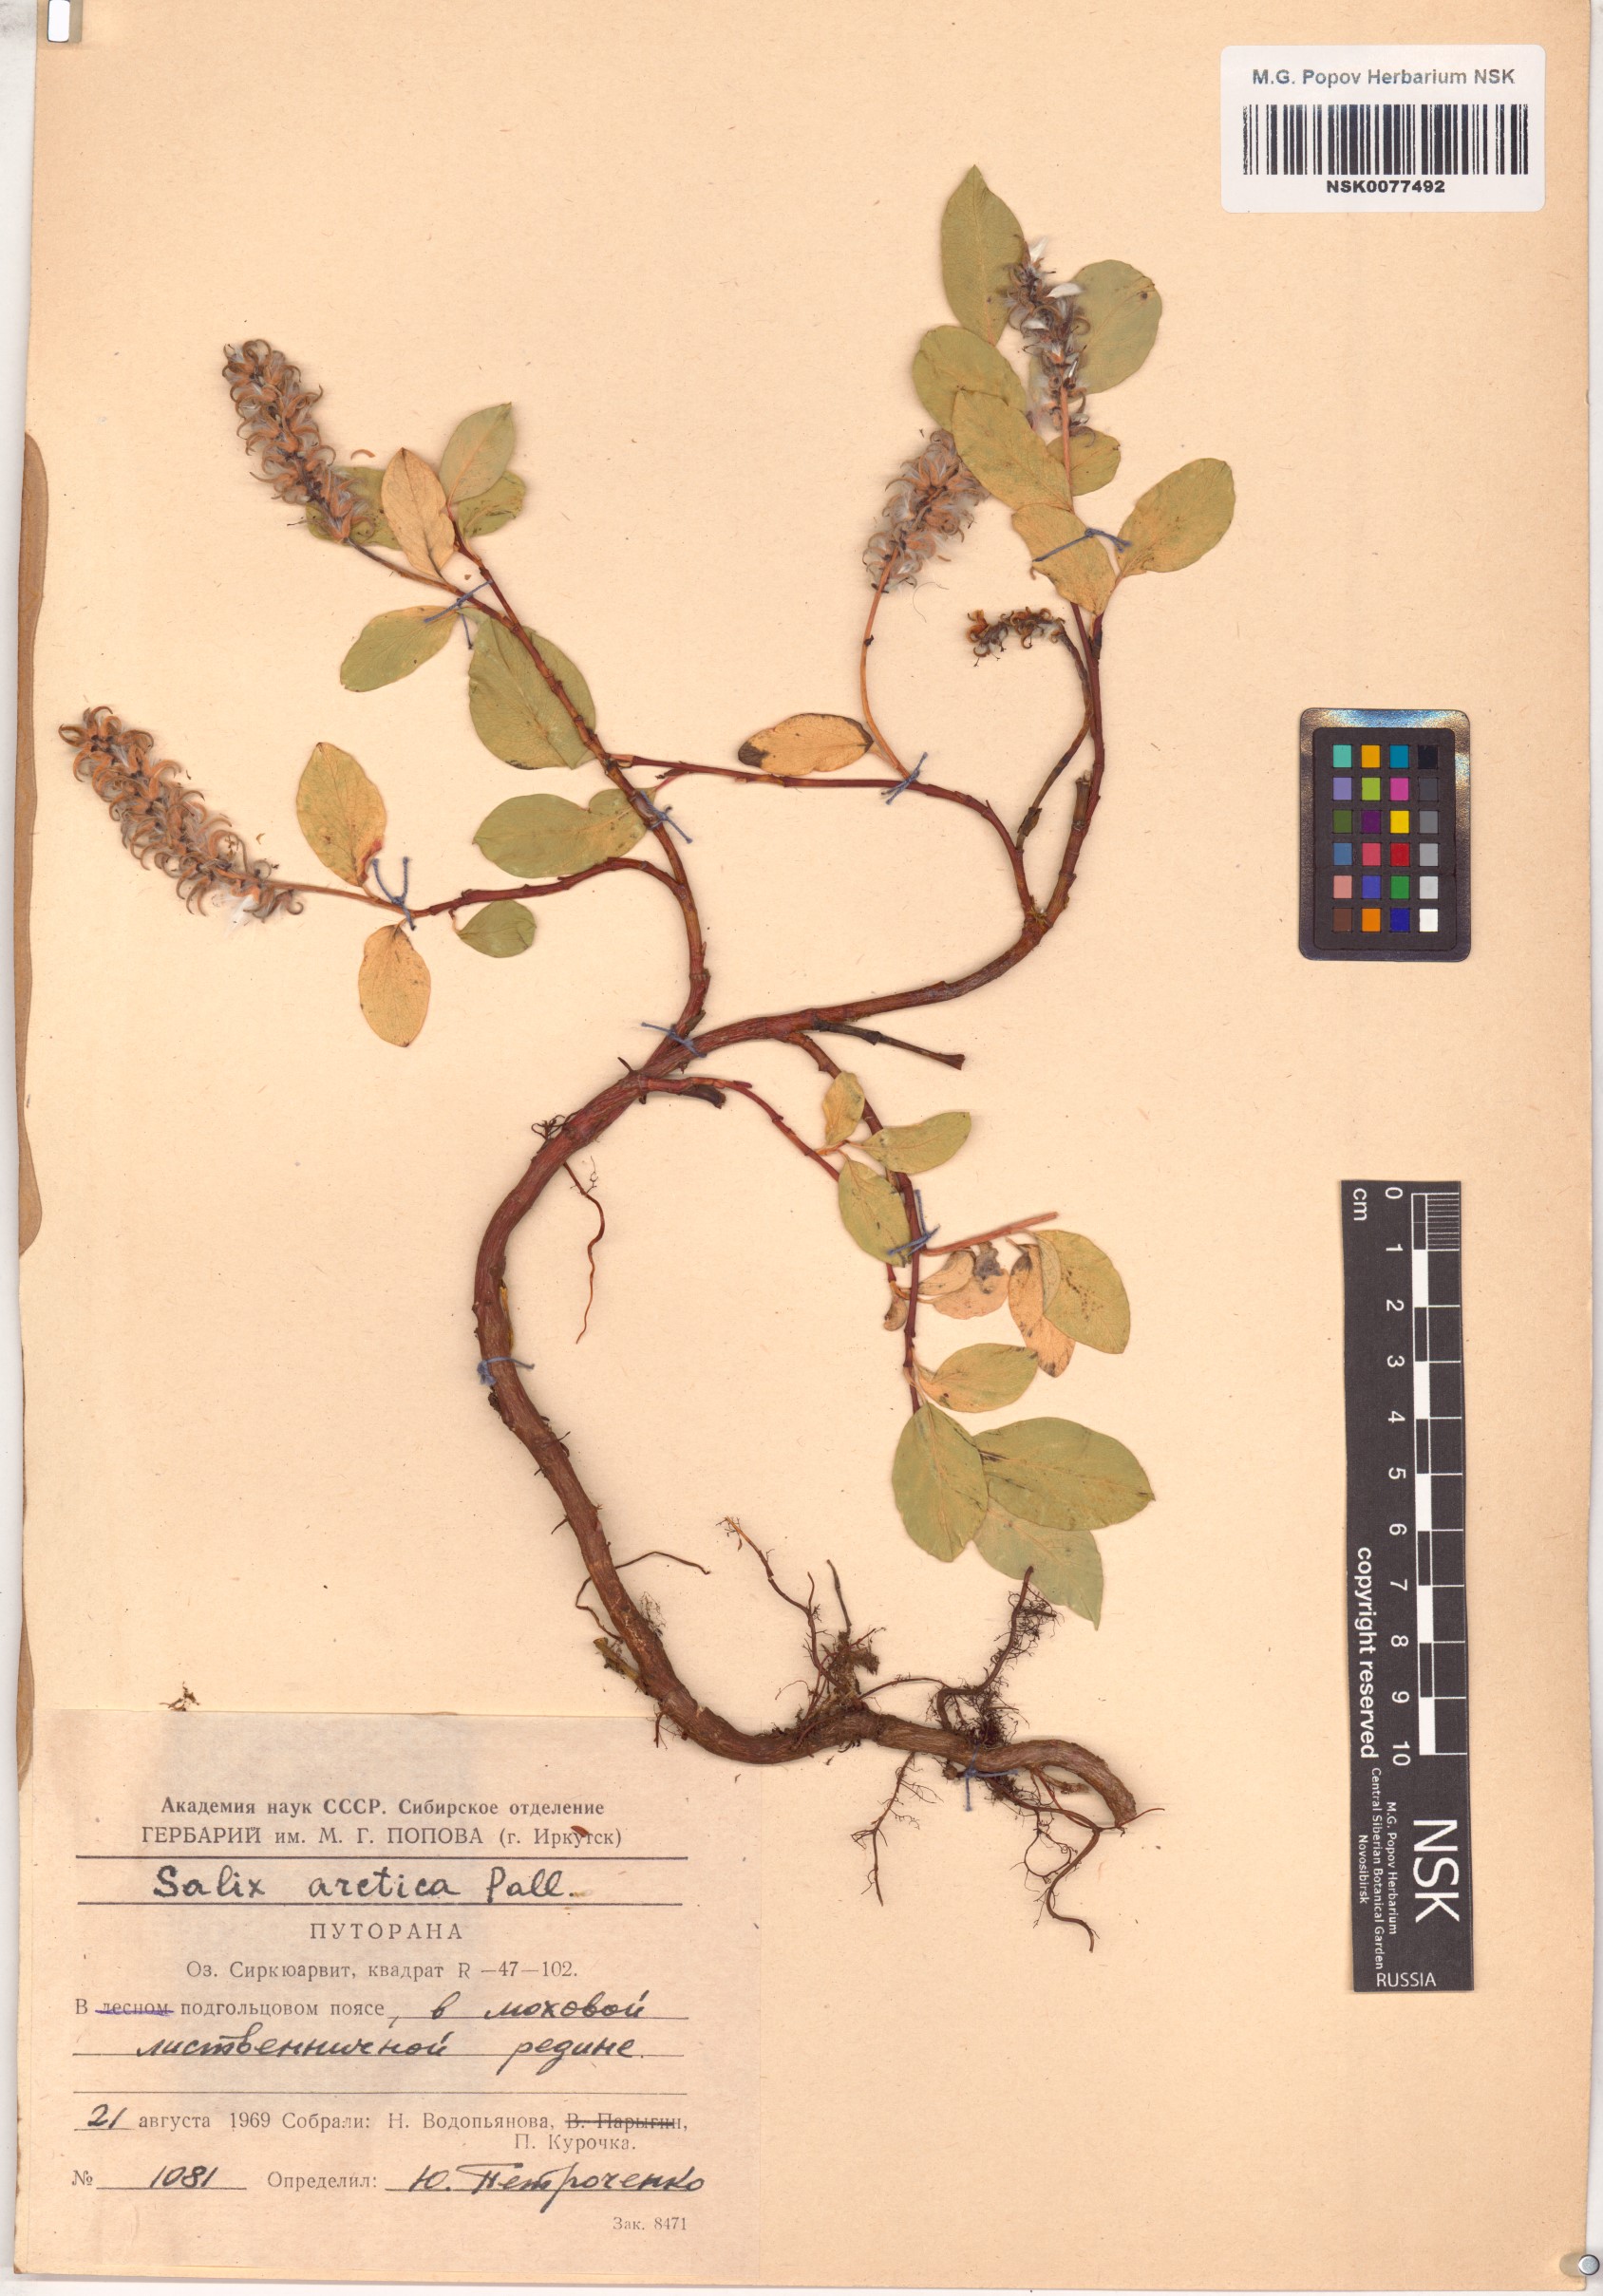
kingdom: Plantae
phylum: Tracheophyta
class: Magnoliopsida
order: Malpighiales
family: Salicaceae
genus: Salix
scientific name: Salix arctica
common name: Arctic willow
